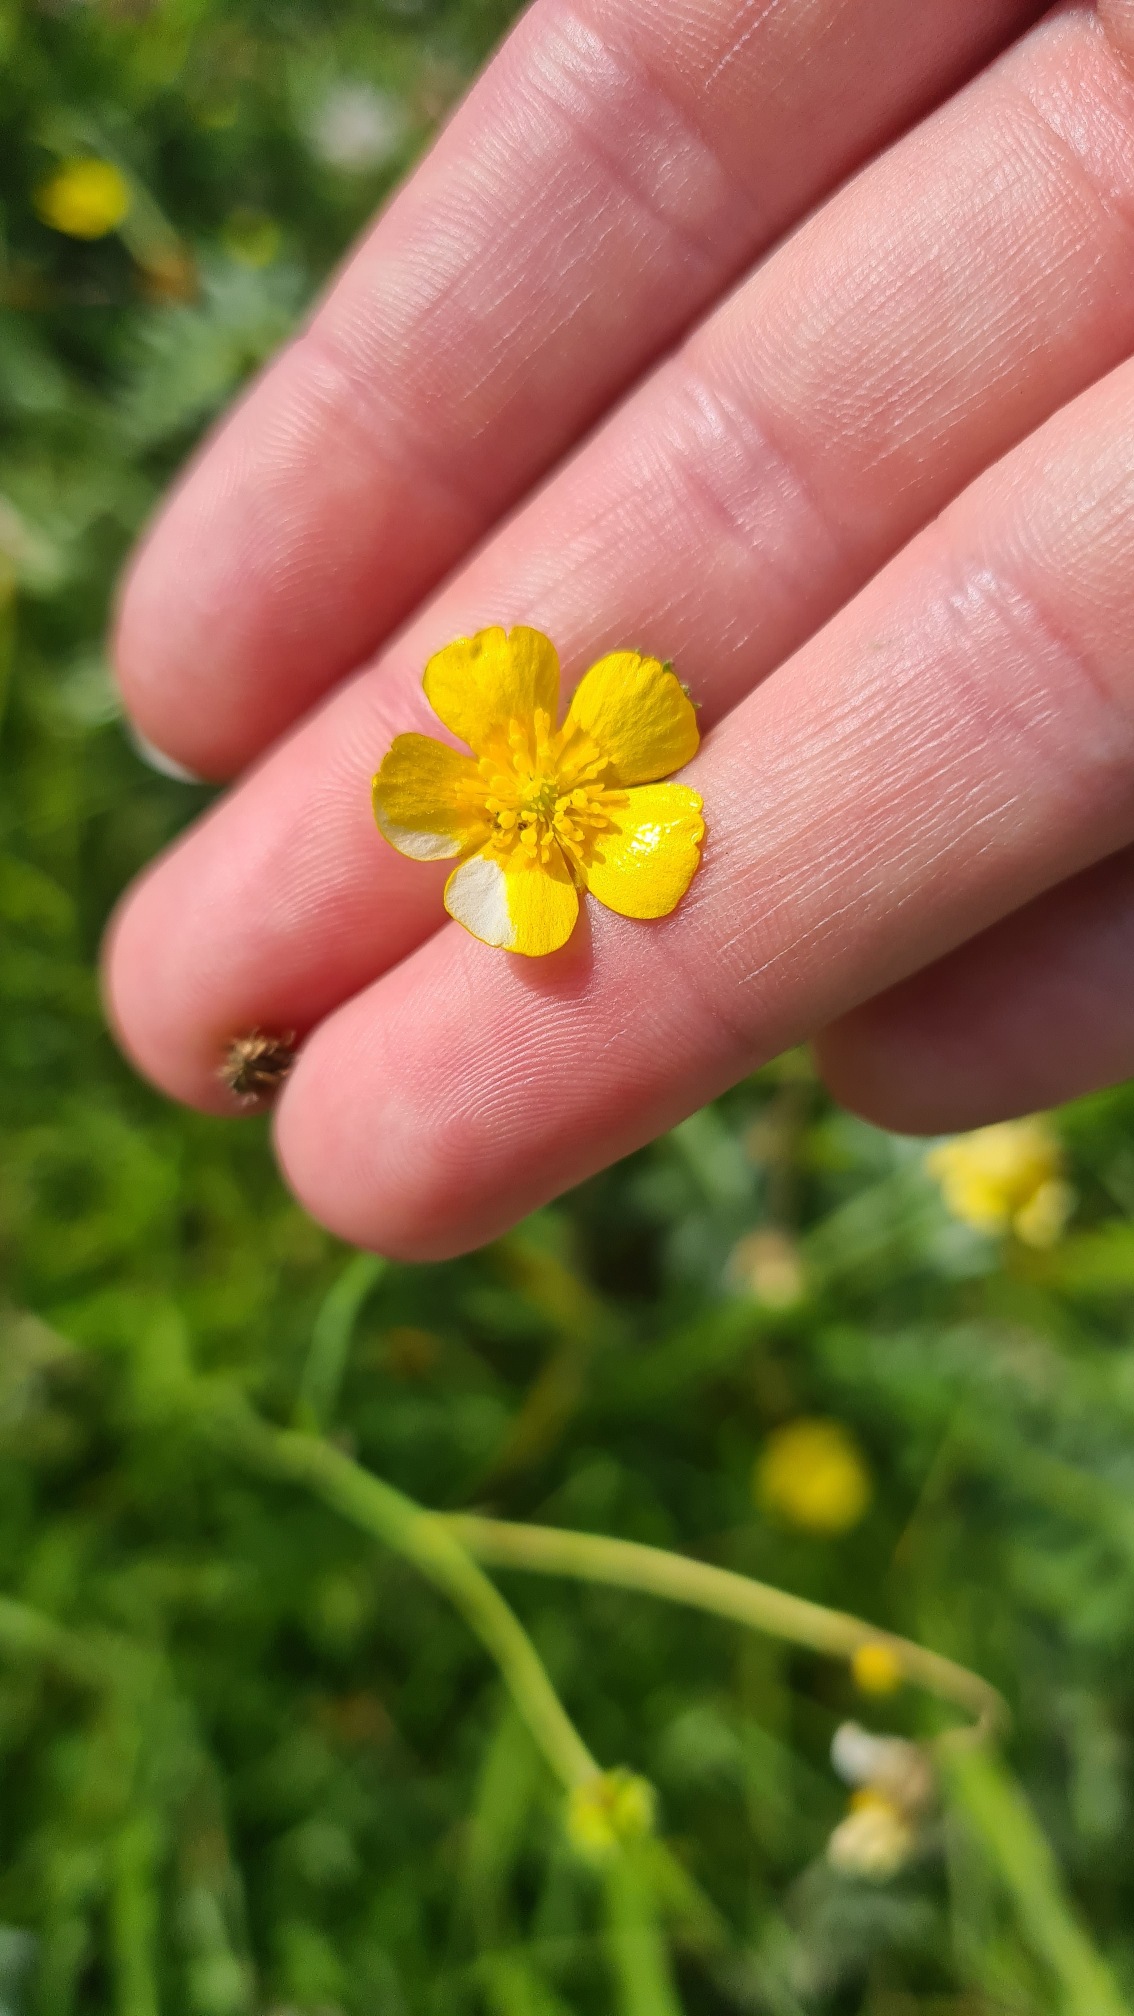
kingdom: Plantae
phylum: Tracheophyta
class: Magnoliopsida
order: Ranunculales
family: Ranunculaceae
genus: Ranunculus
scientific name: Ranunculus acris
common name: Bidende ranunkel
